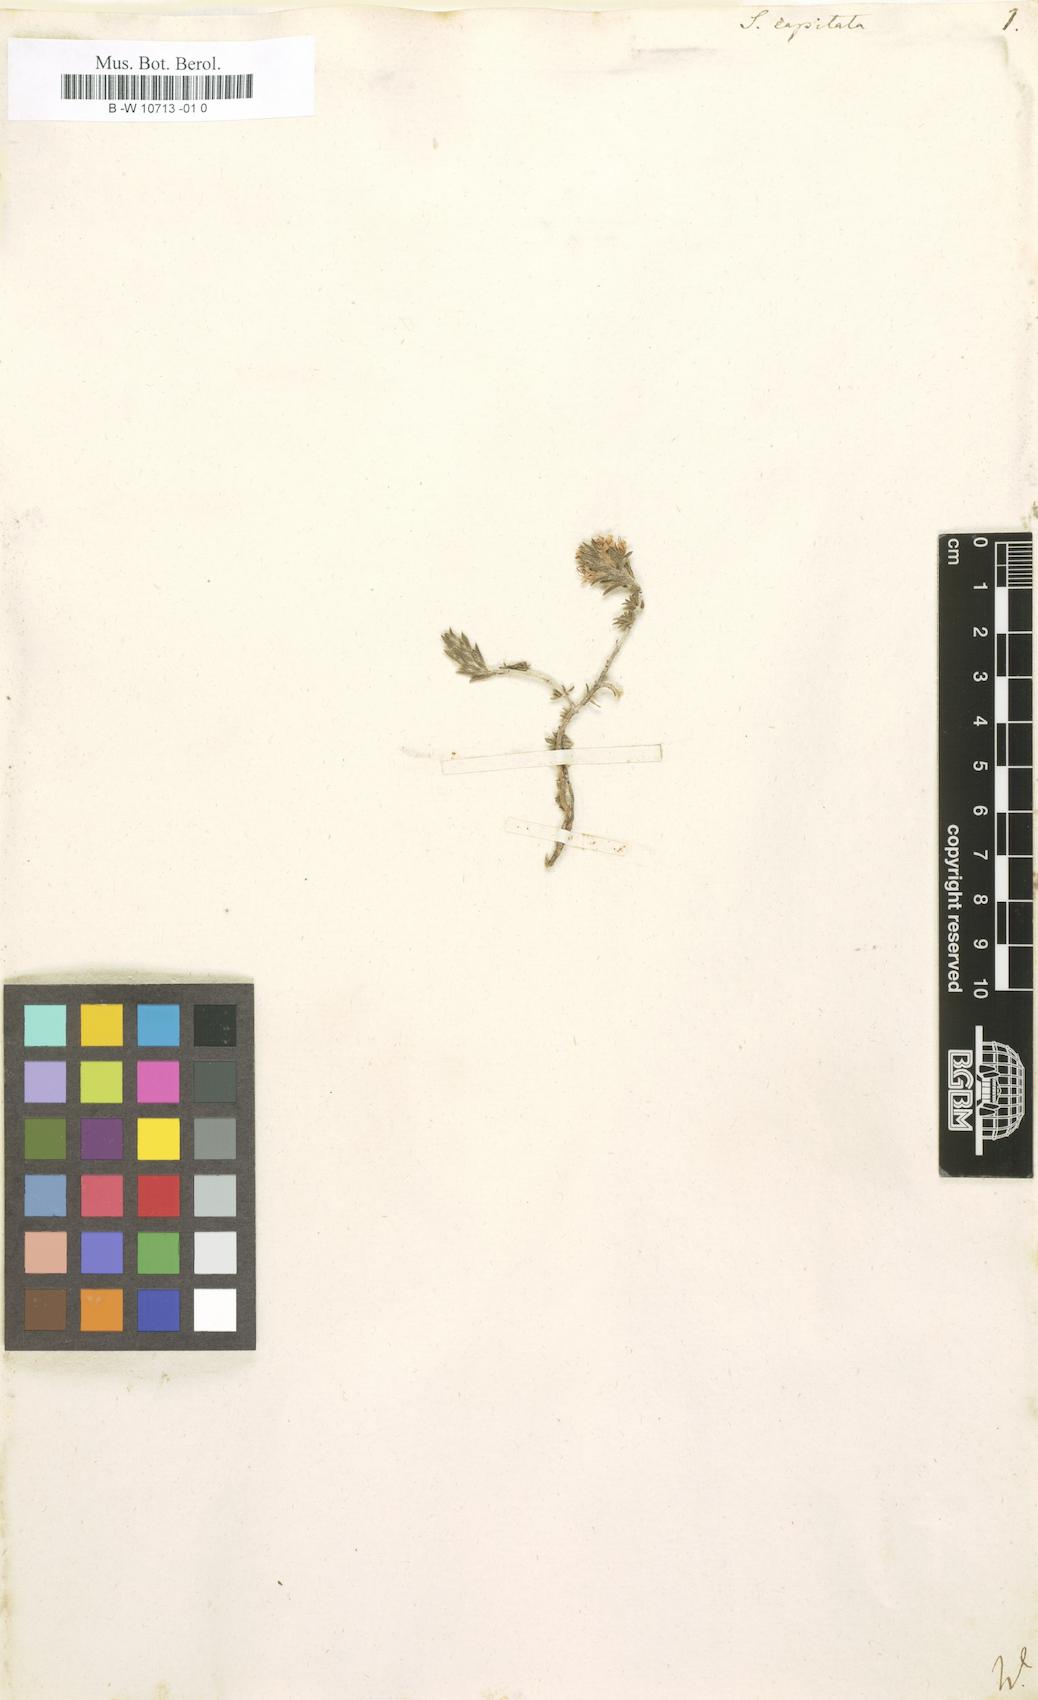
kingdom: Plantae
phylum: Tracheophyta
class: Magnoliopsida
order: Lamiales
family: Lamiaceae
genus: Micromeria
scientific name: Micromeria nervosa
